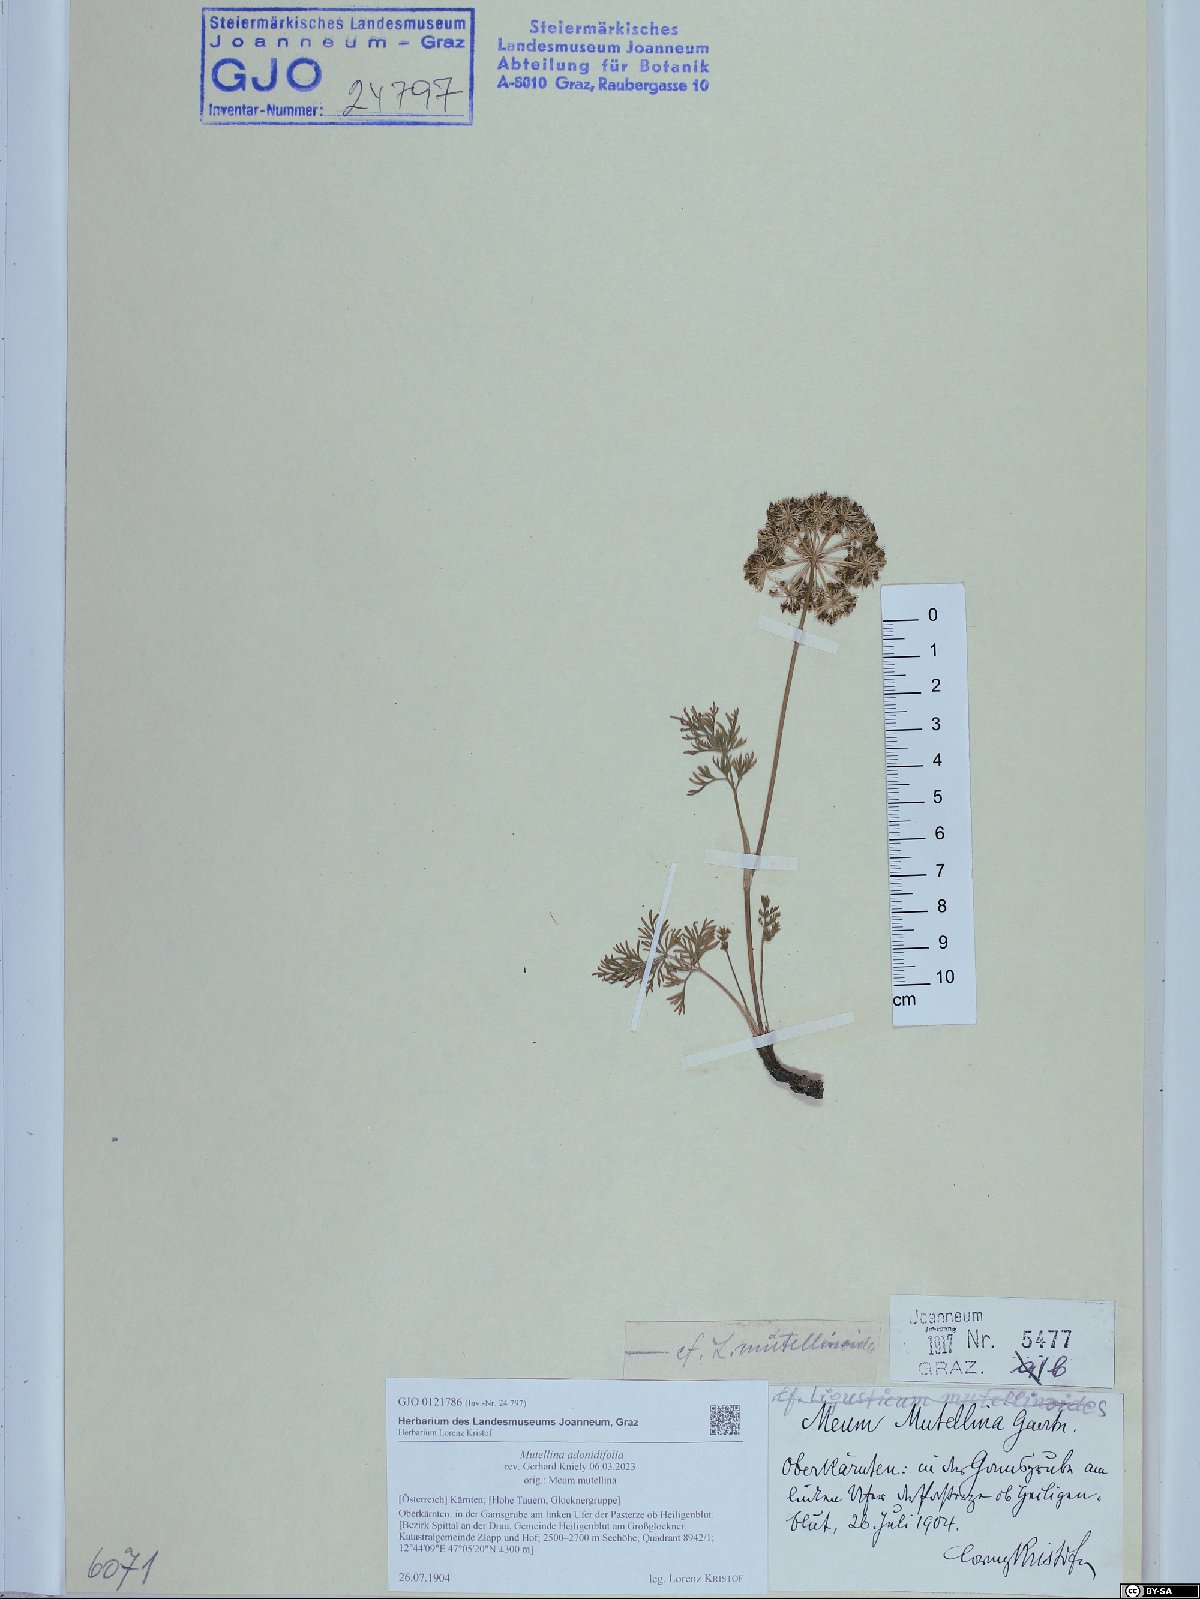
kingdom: Plantae
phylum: Tracheophyta
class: Magnoliopsida
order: Apiales
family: Apiaceae
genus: Mutellina
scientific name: Mutellina adonidifolia
